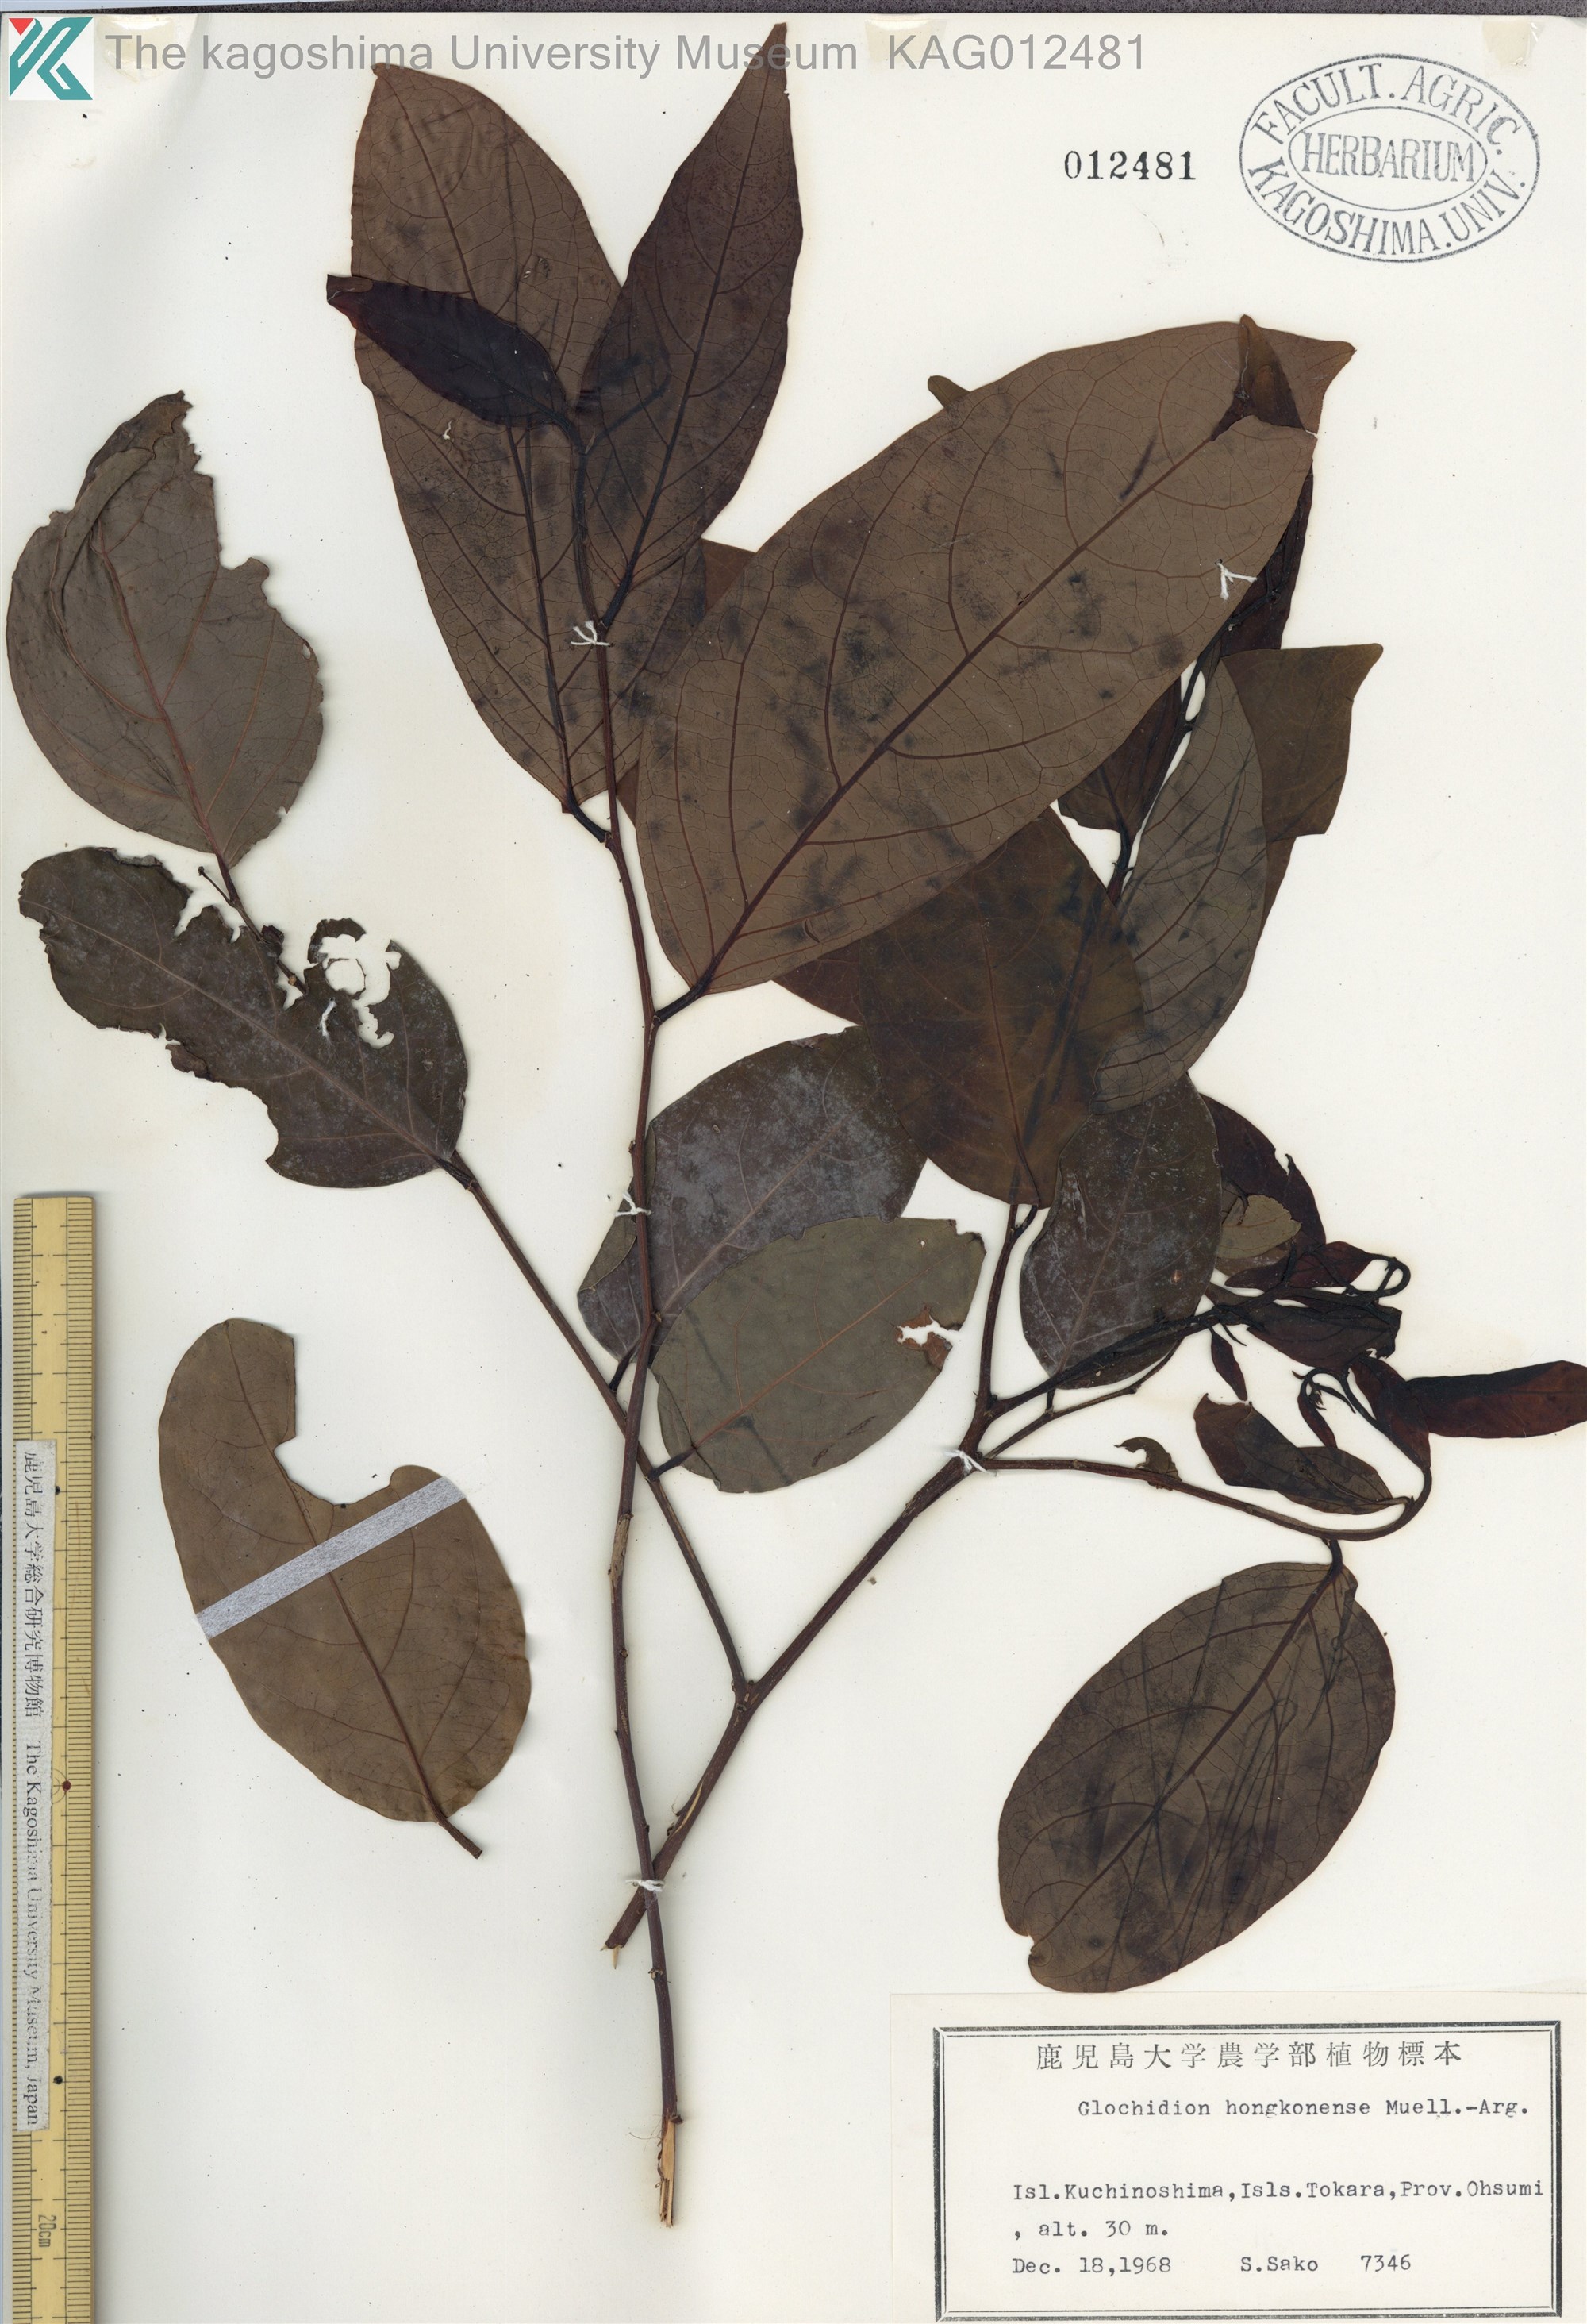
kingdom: Plantae
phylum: Tracheophyta
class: Magnoliopsida
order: Malpighiales
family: Phyllanthaceae
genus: Glochidion
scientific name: Glochidion zeylanicum
